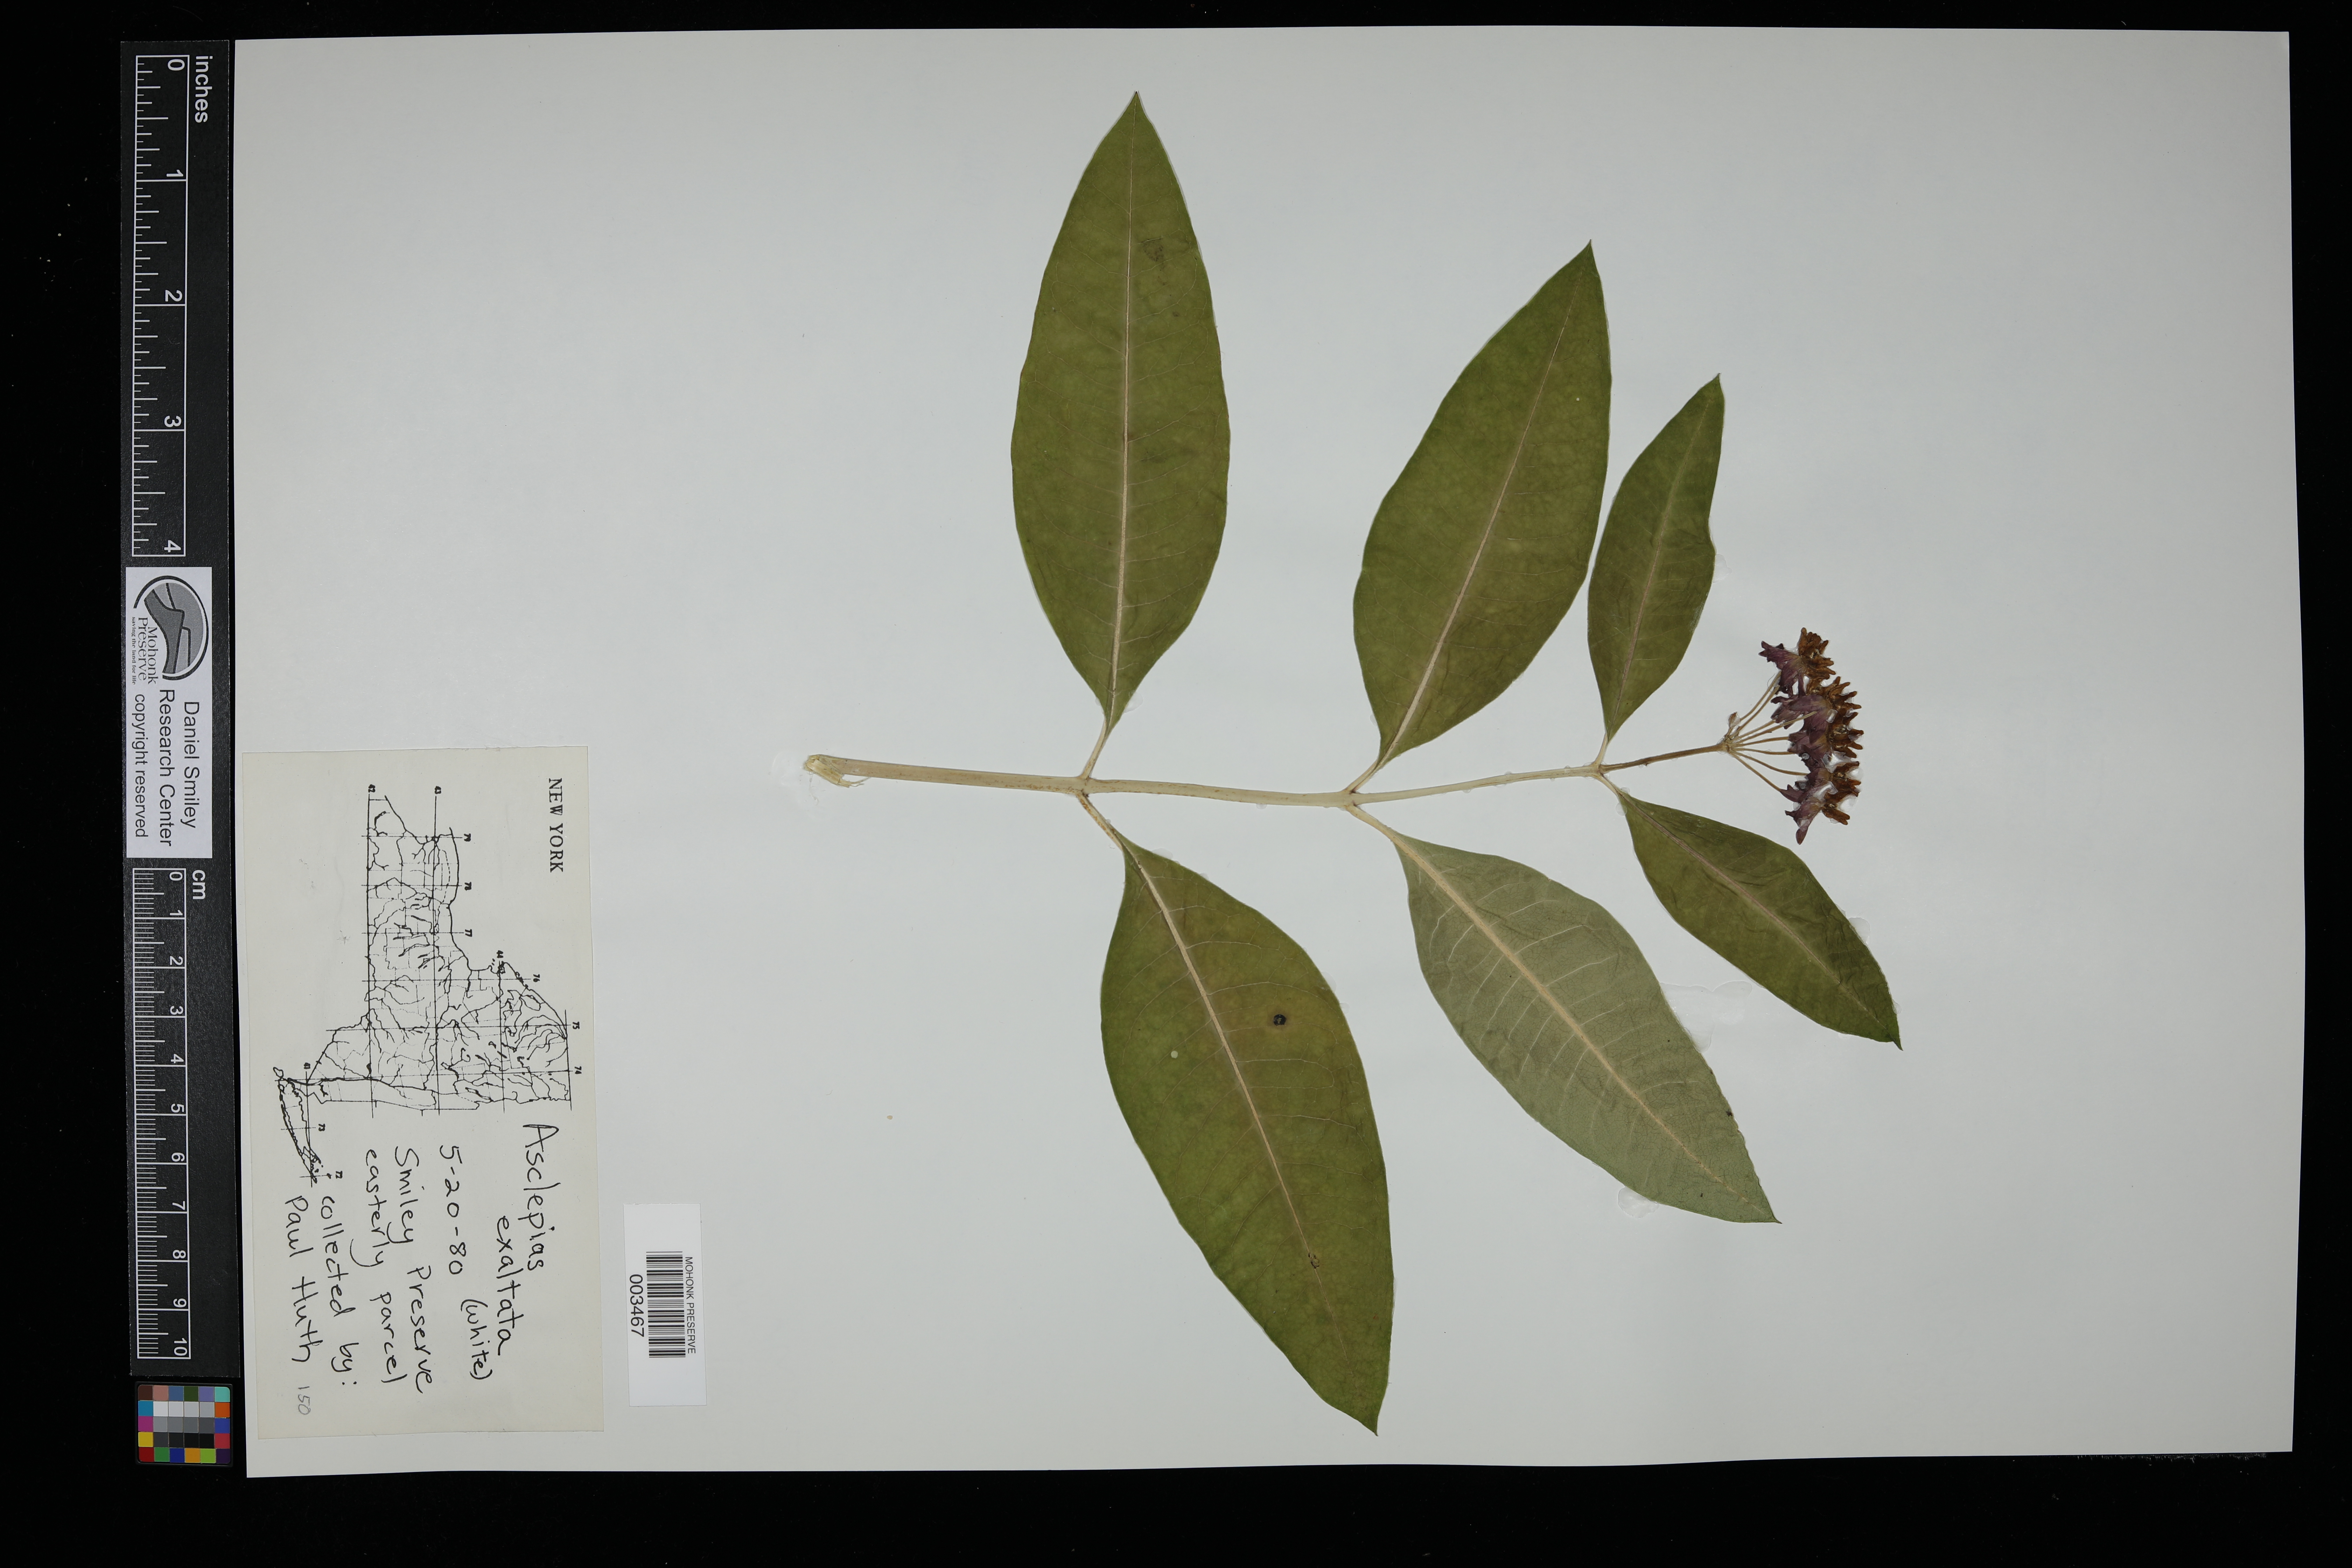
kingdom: Plantae
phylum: Tracheophyta
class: Magnoliopsida
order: Gentianales
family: Apocynaceae
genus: Asclepias
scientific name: Asclepias exaltata
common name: Poke milkweed
